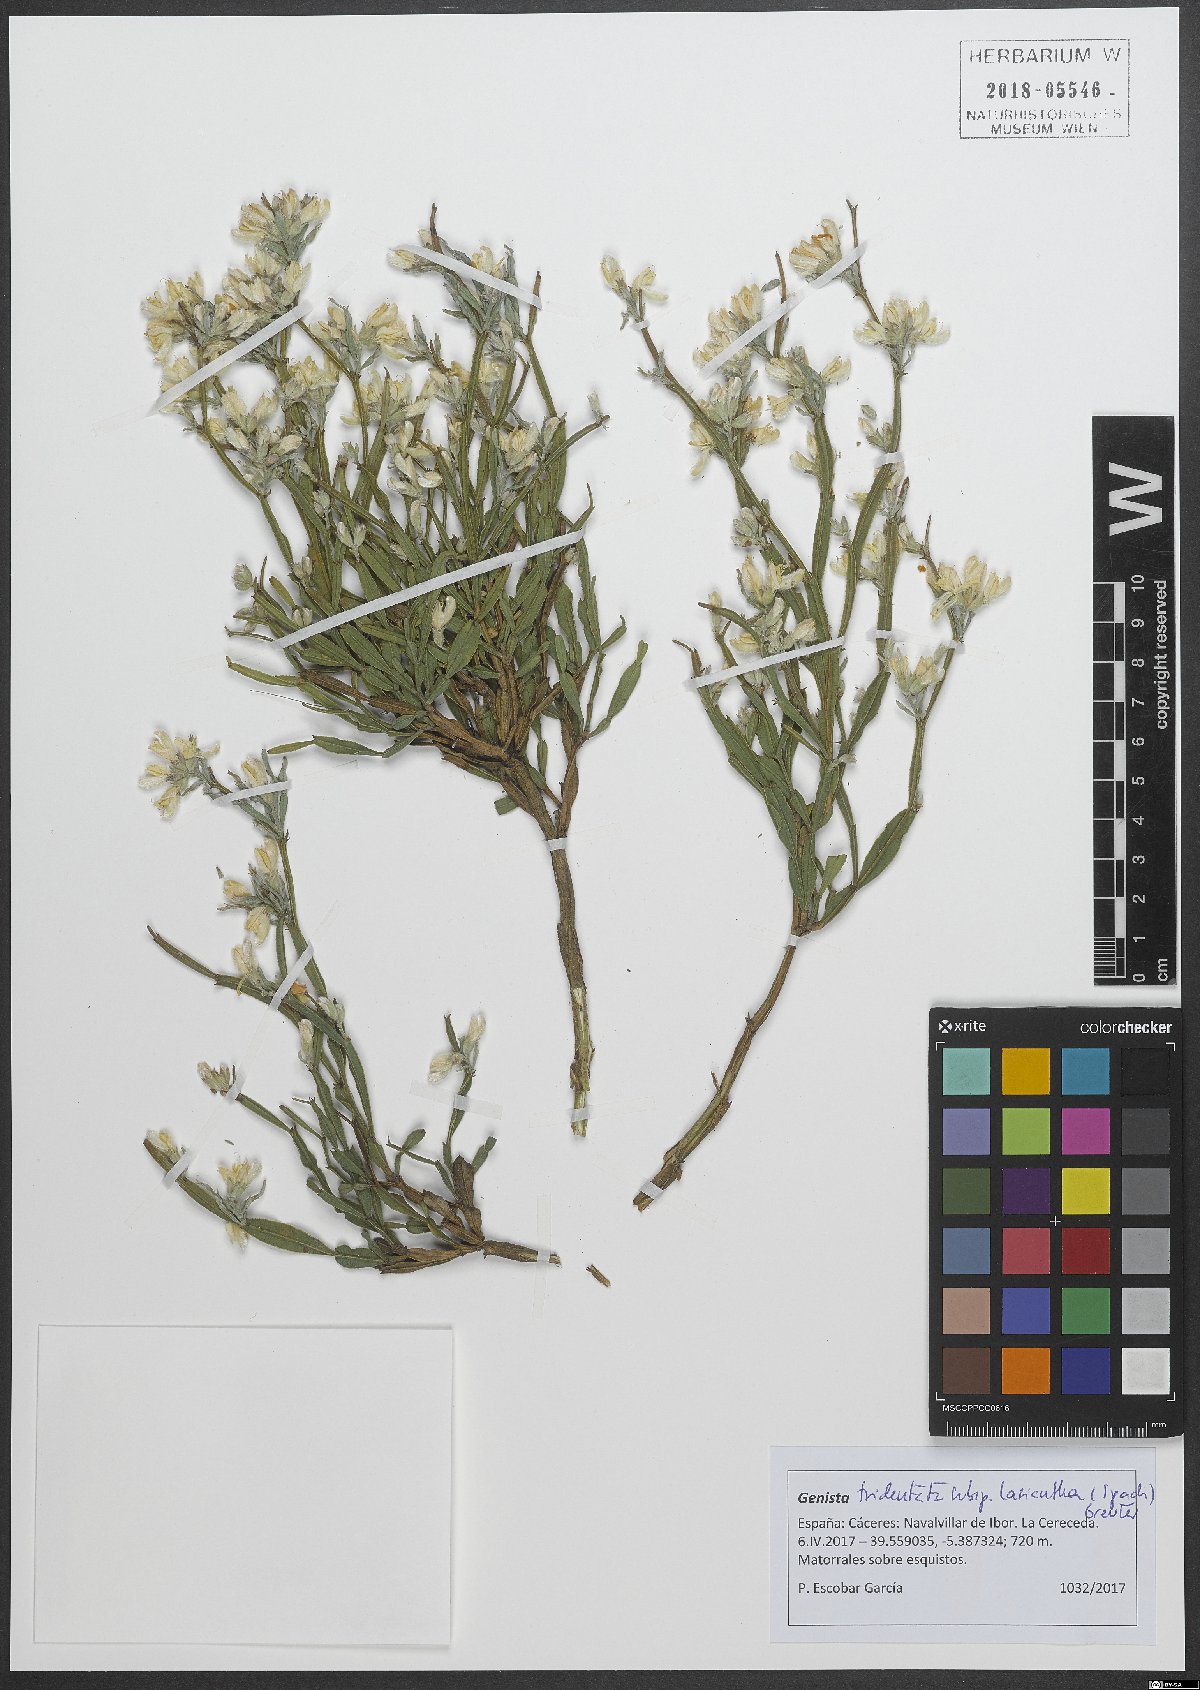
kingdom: Plantae
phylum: Tracheophyta
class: Magnoliopsida
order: Fabales
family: Fabaceae
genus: Genista
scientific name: Genista tridentata
